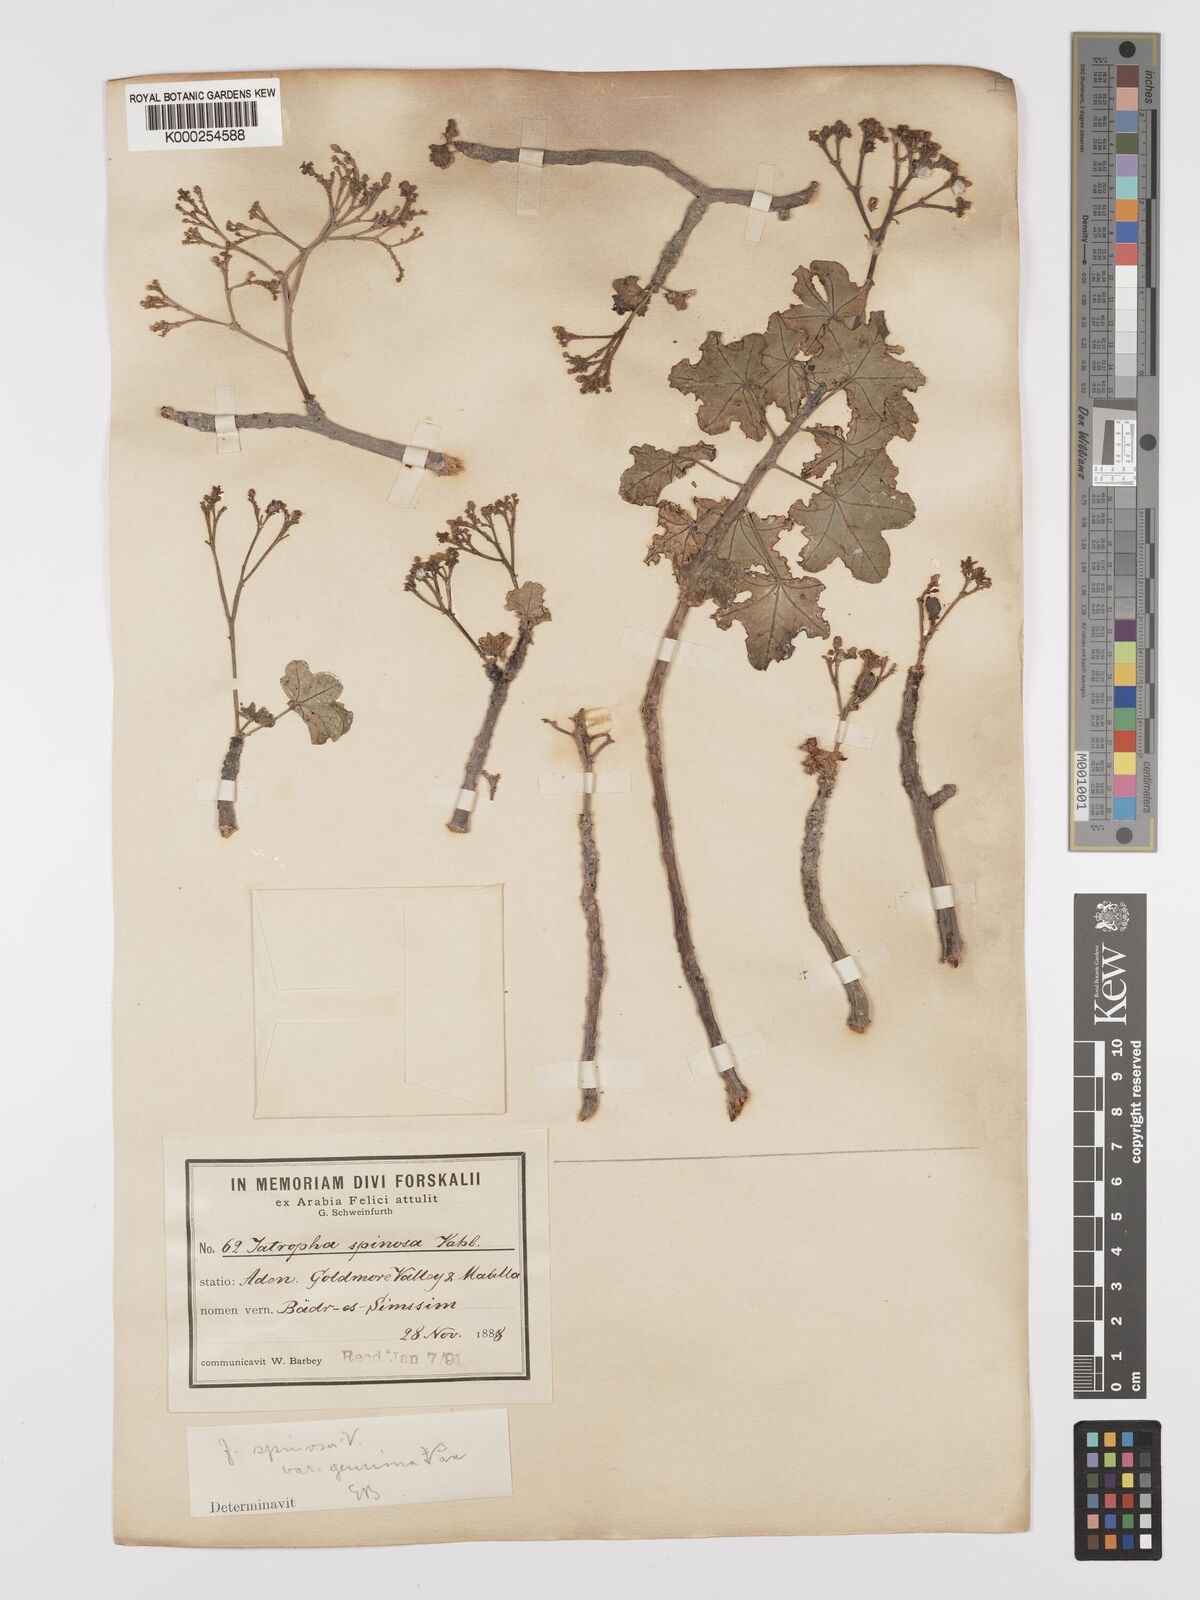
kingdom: Plantae
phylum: Tracheophyta
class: Magnoliopsida
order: Malpighiales
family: Euphorbiaceae
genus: Jatropha
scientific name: Jatropha spinosa
